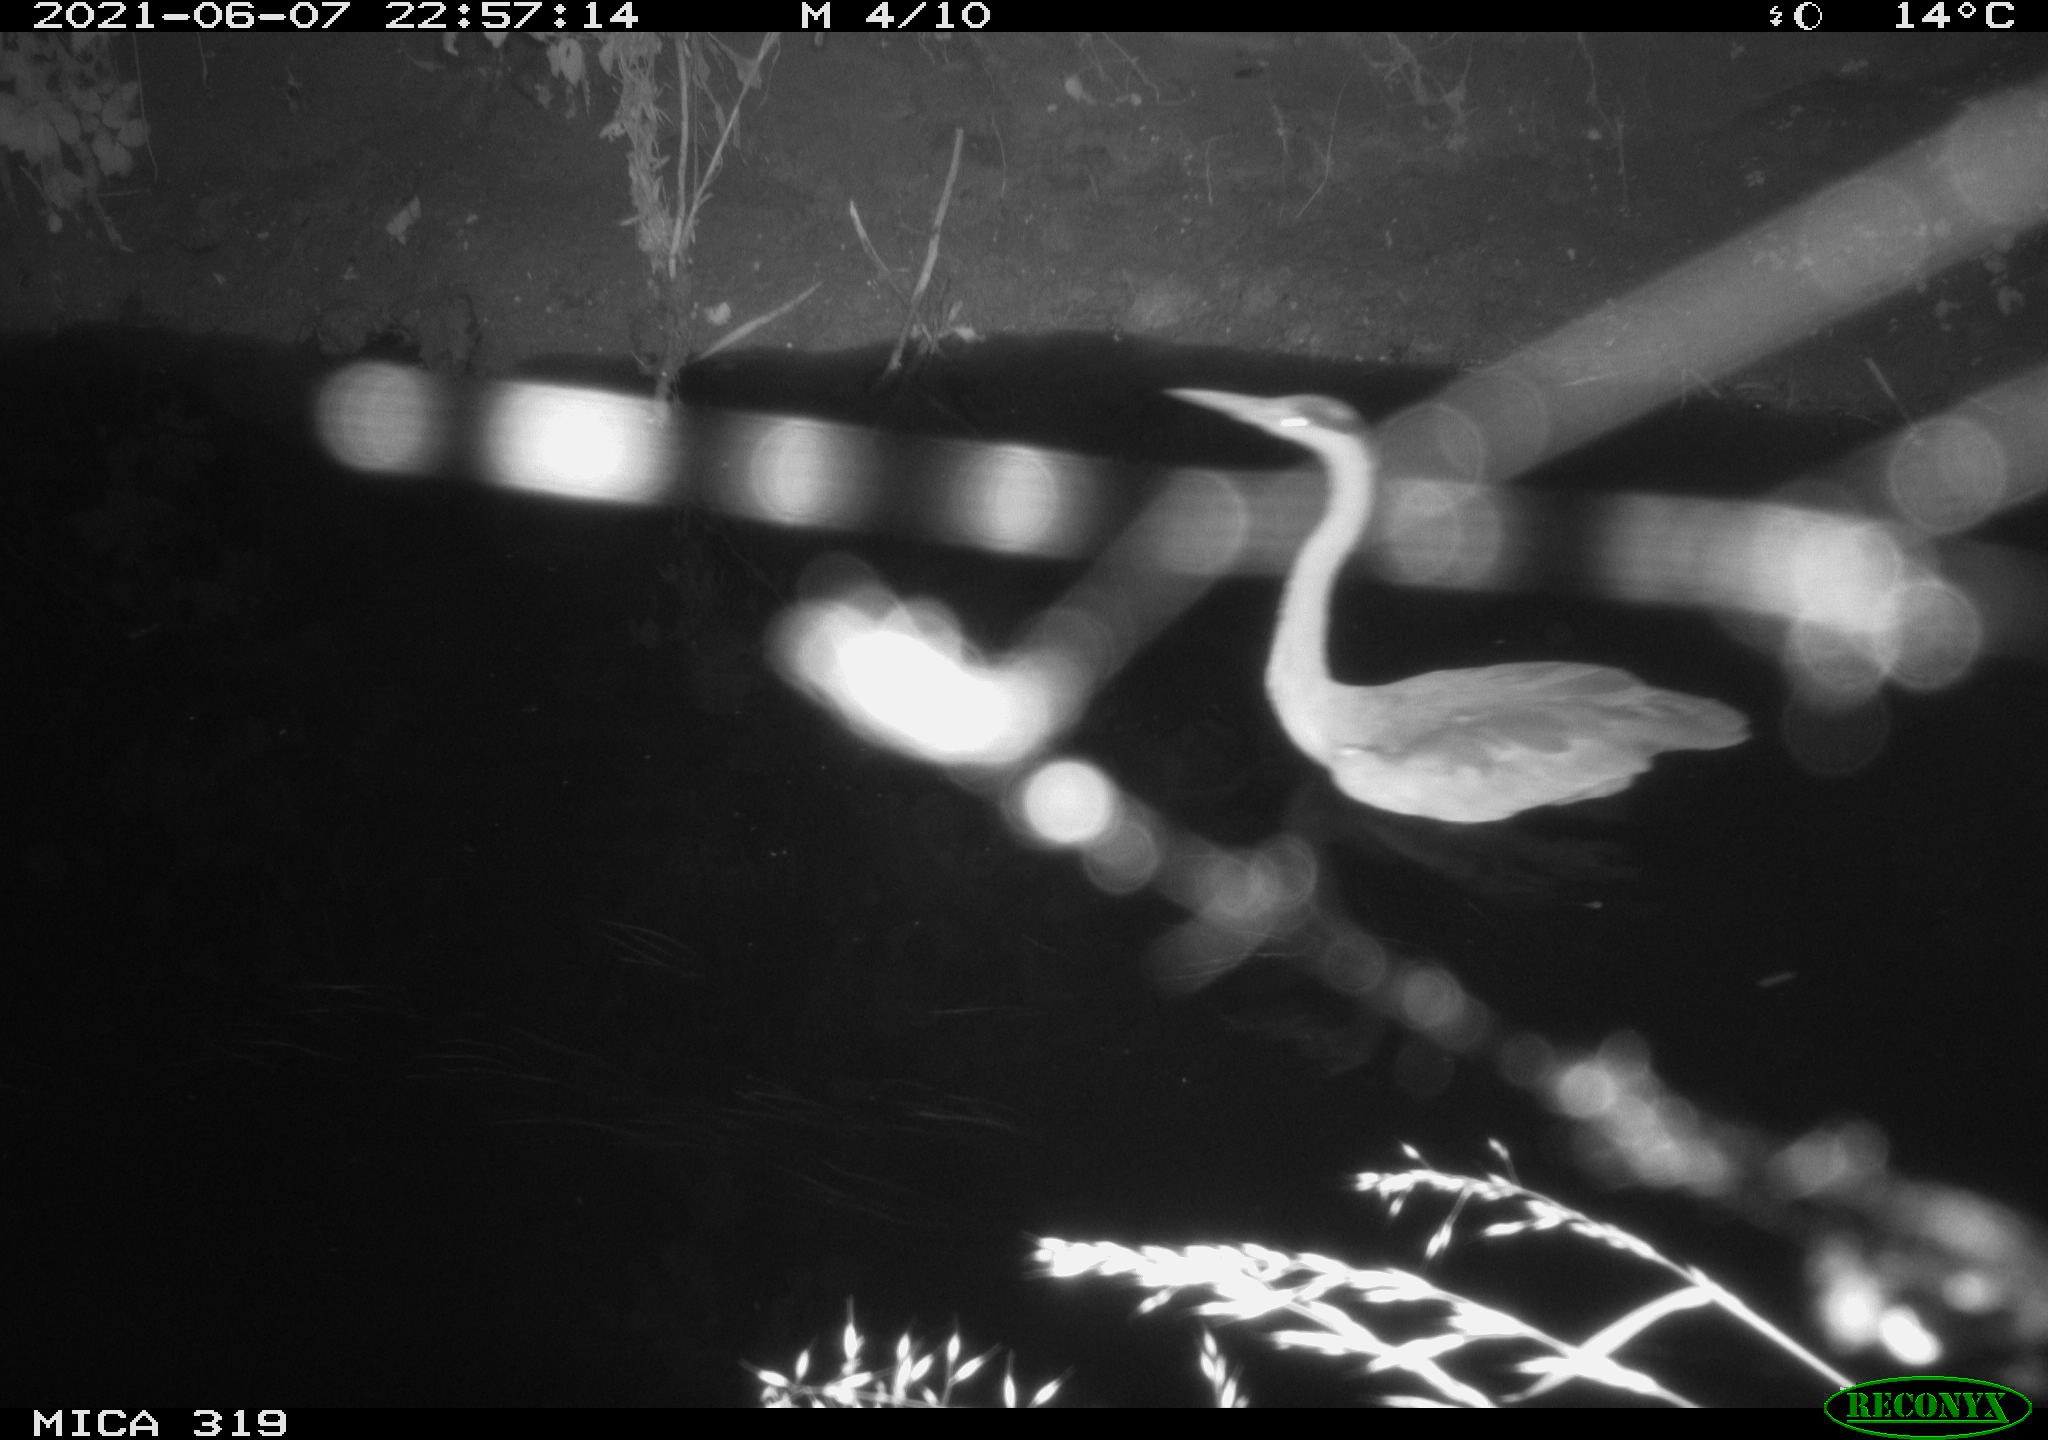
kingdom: Animalia
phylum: Chordata
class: Aves
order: Pelecaniformes
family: Ardeidae
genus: Ardea
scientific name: Ardea
